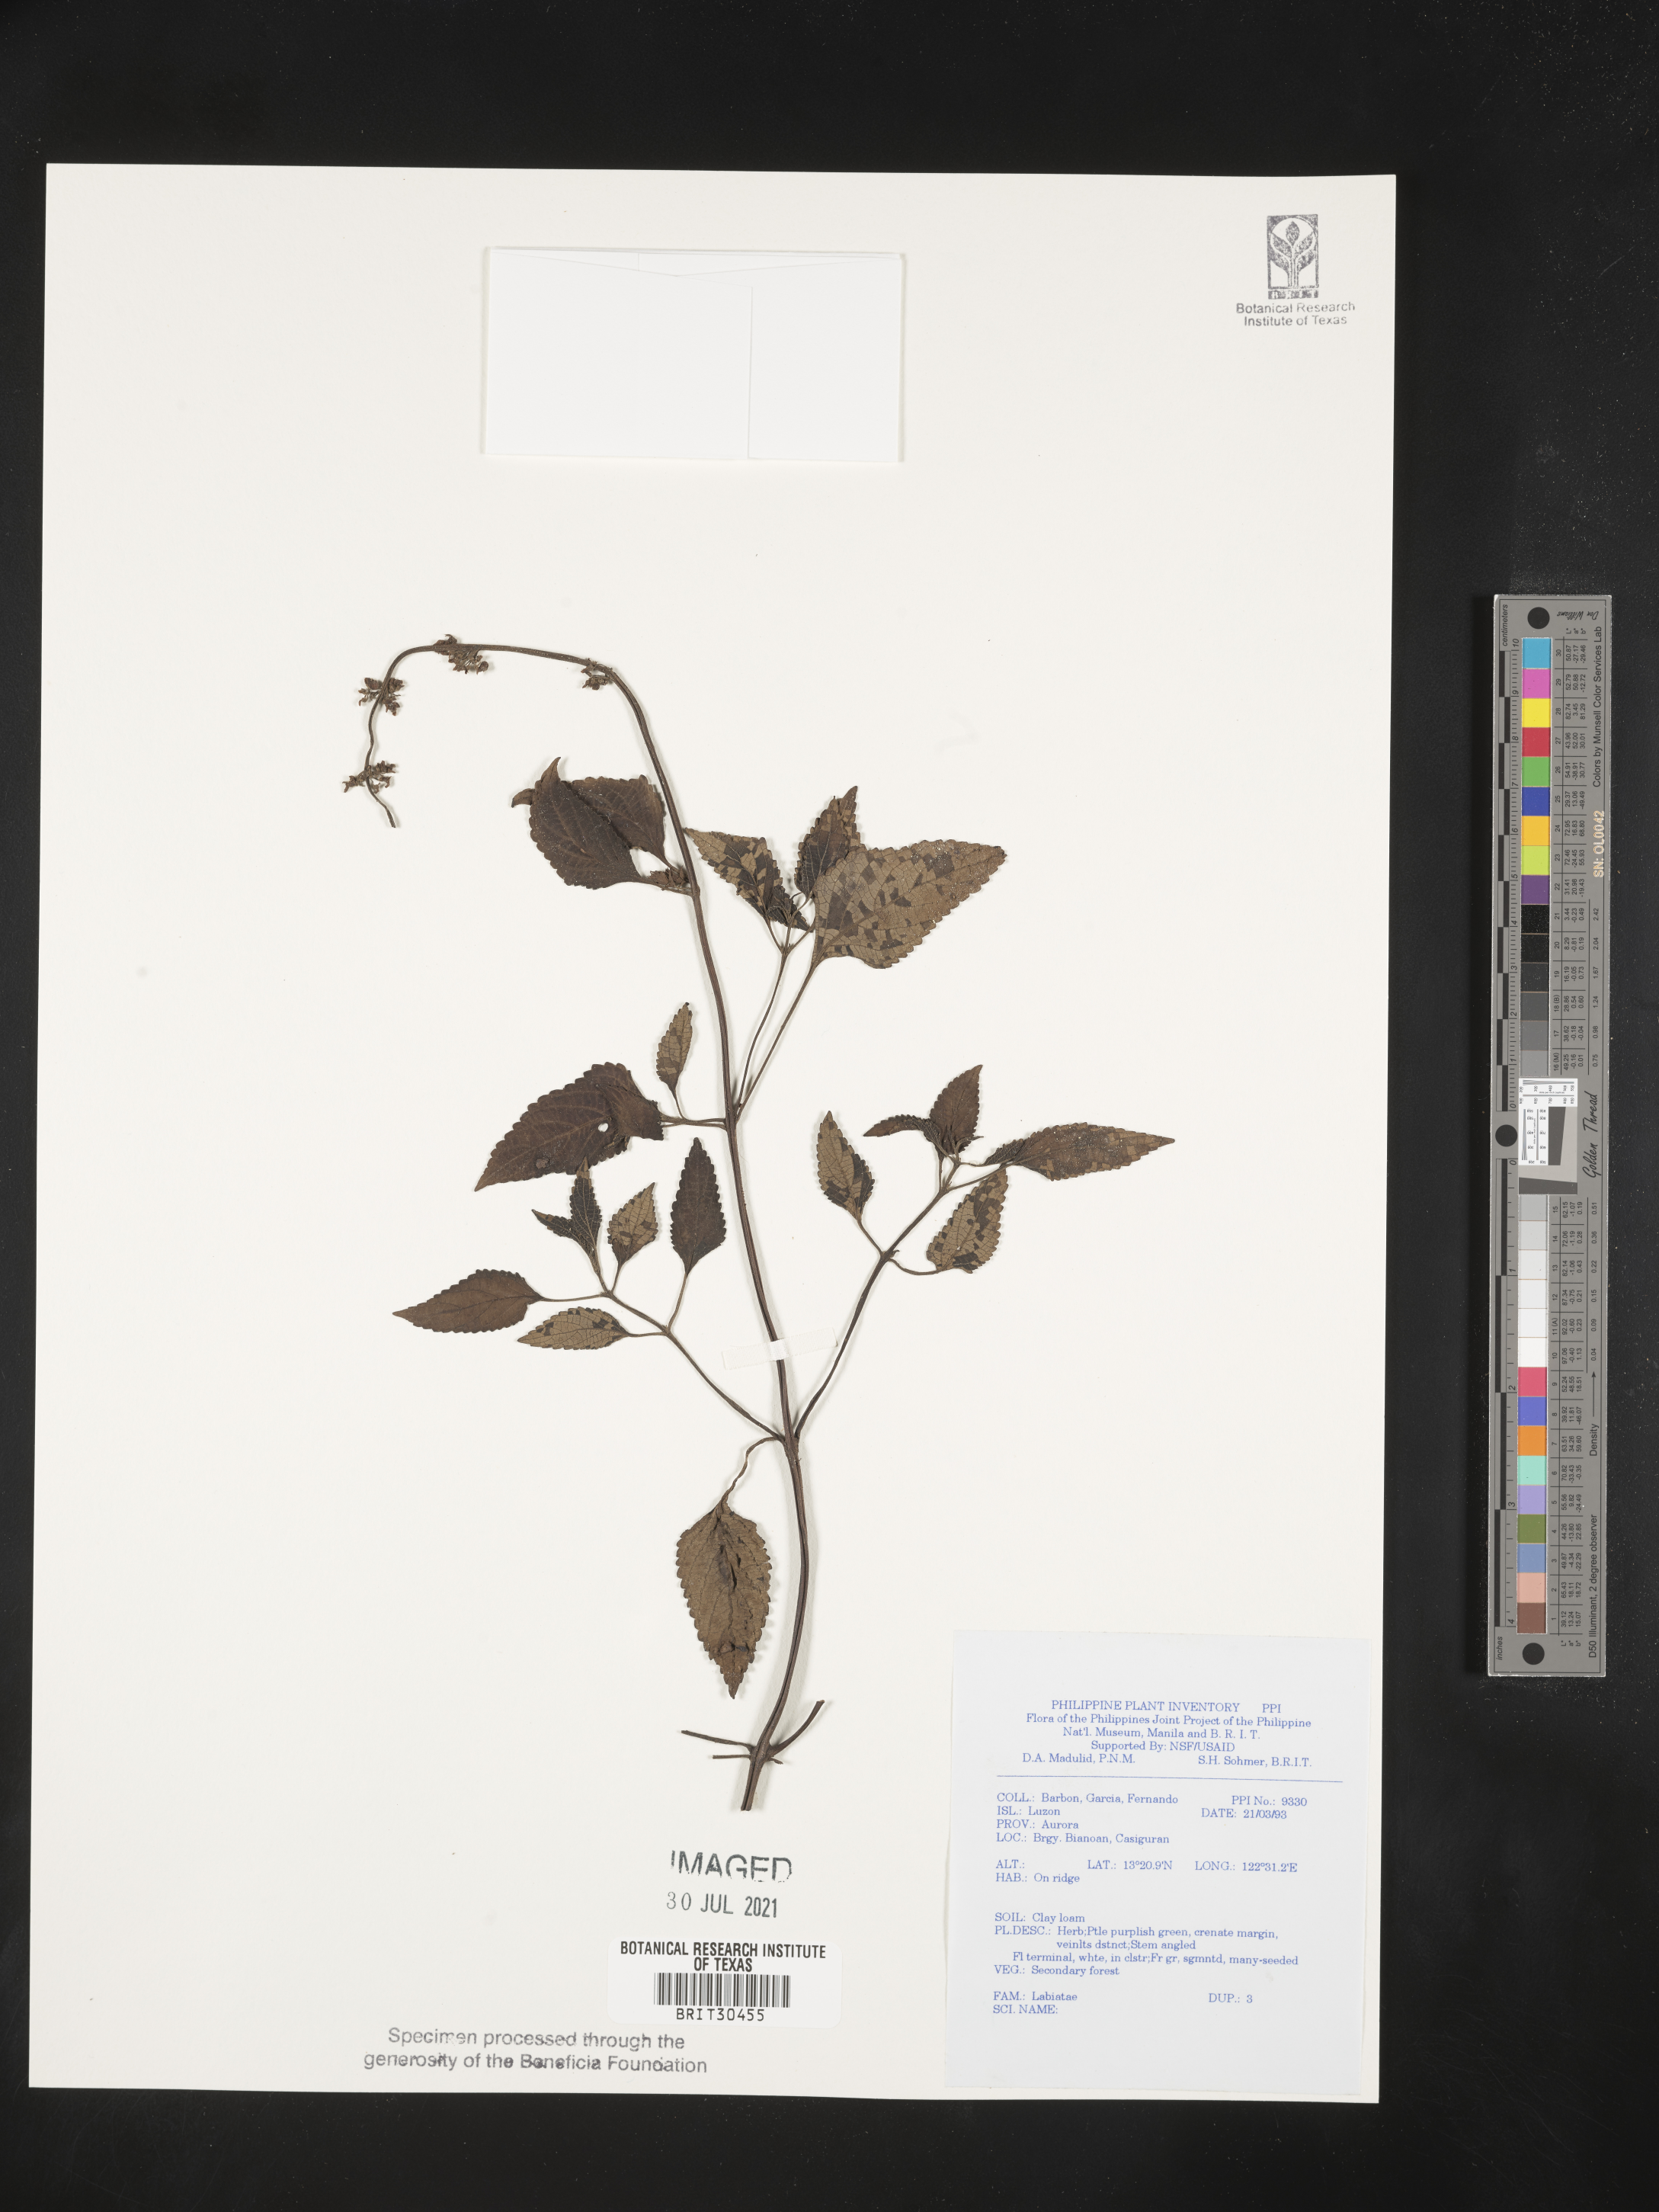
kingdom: Plantae
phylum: Tracheophyta
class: Magnoliopsida
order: Lamiales
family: Lamiaceae
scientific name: Lamiaceae
